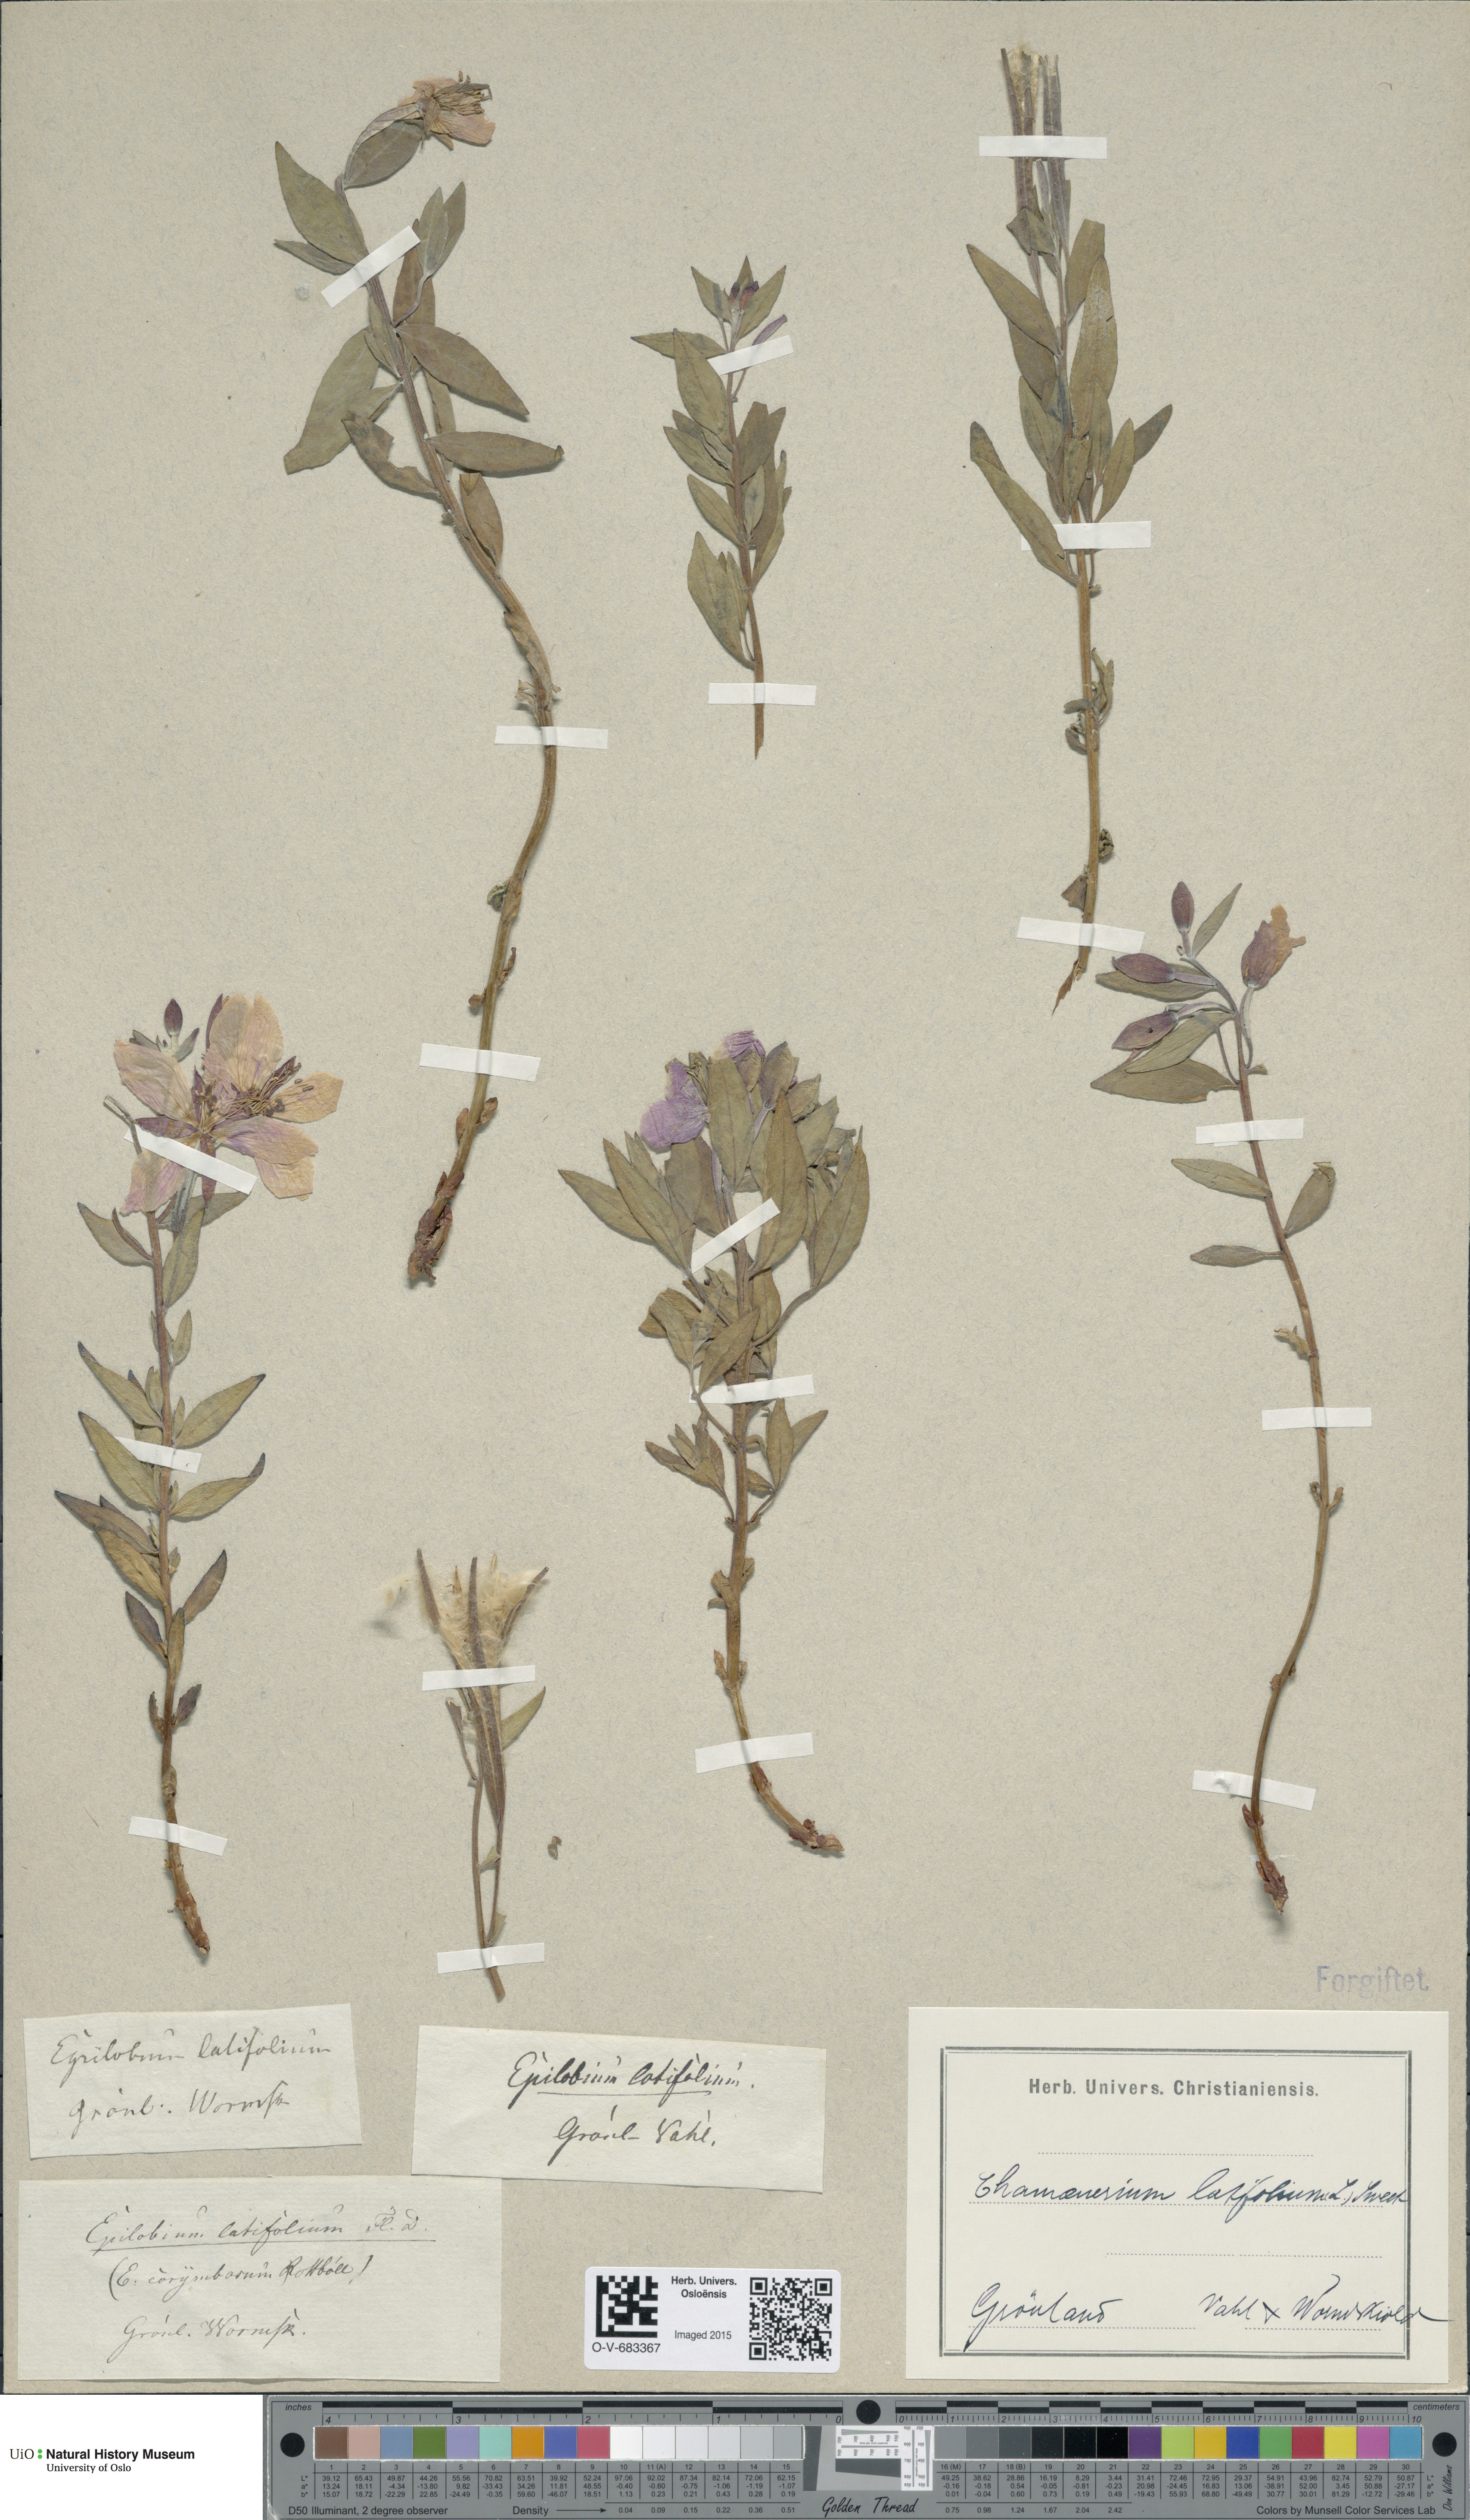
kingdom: Plantae
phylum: Tracheophyta
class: Magnoliopsida
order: Myrtales
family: Onagraceae
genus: Chamaenerion
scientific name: Chamaenerion latifolium
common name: Dwarf fireweed
